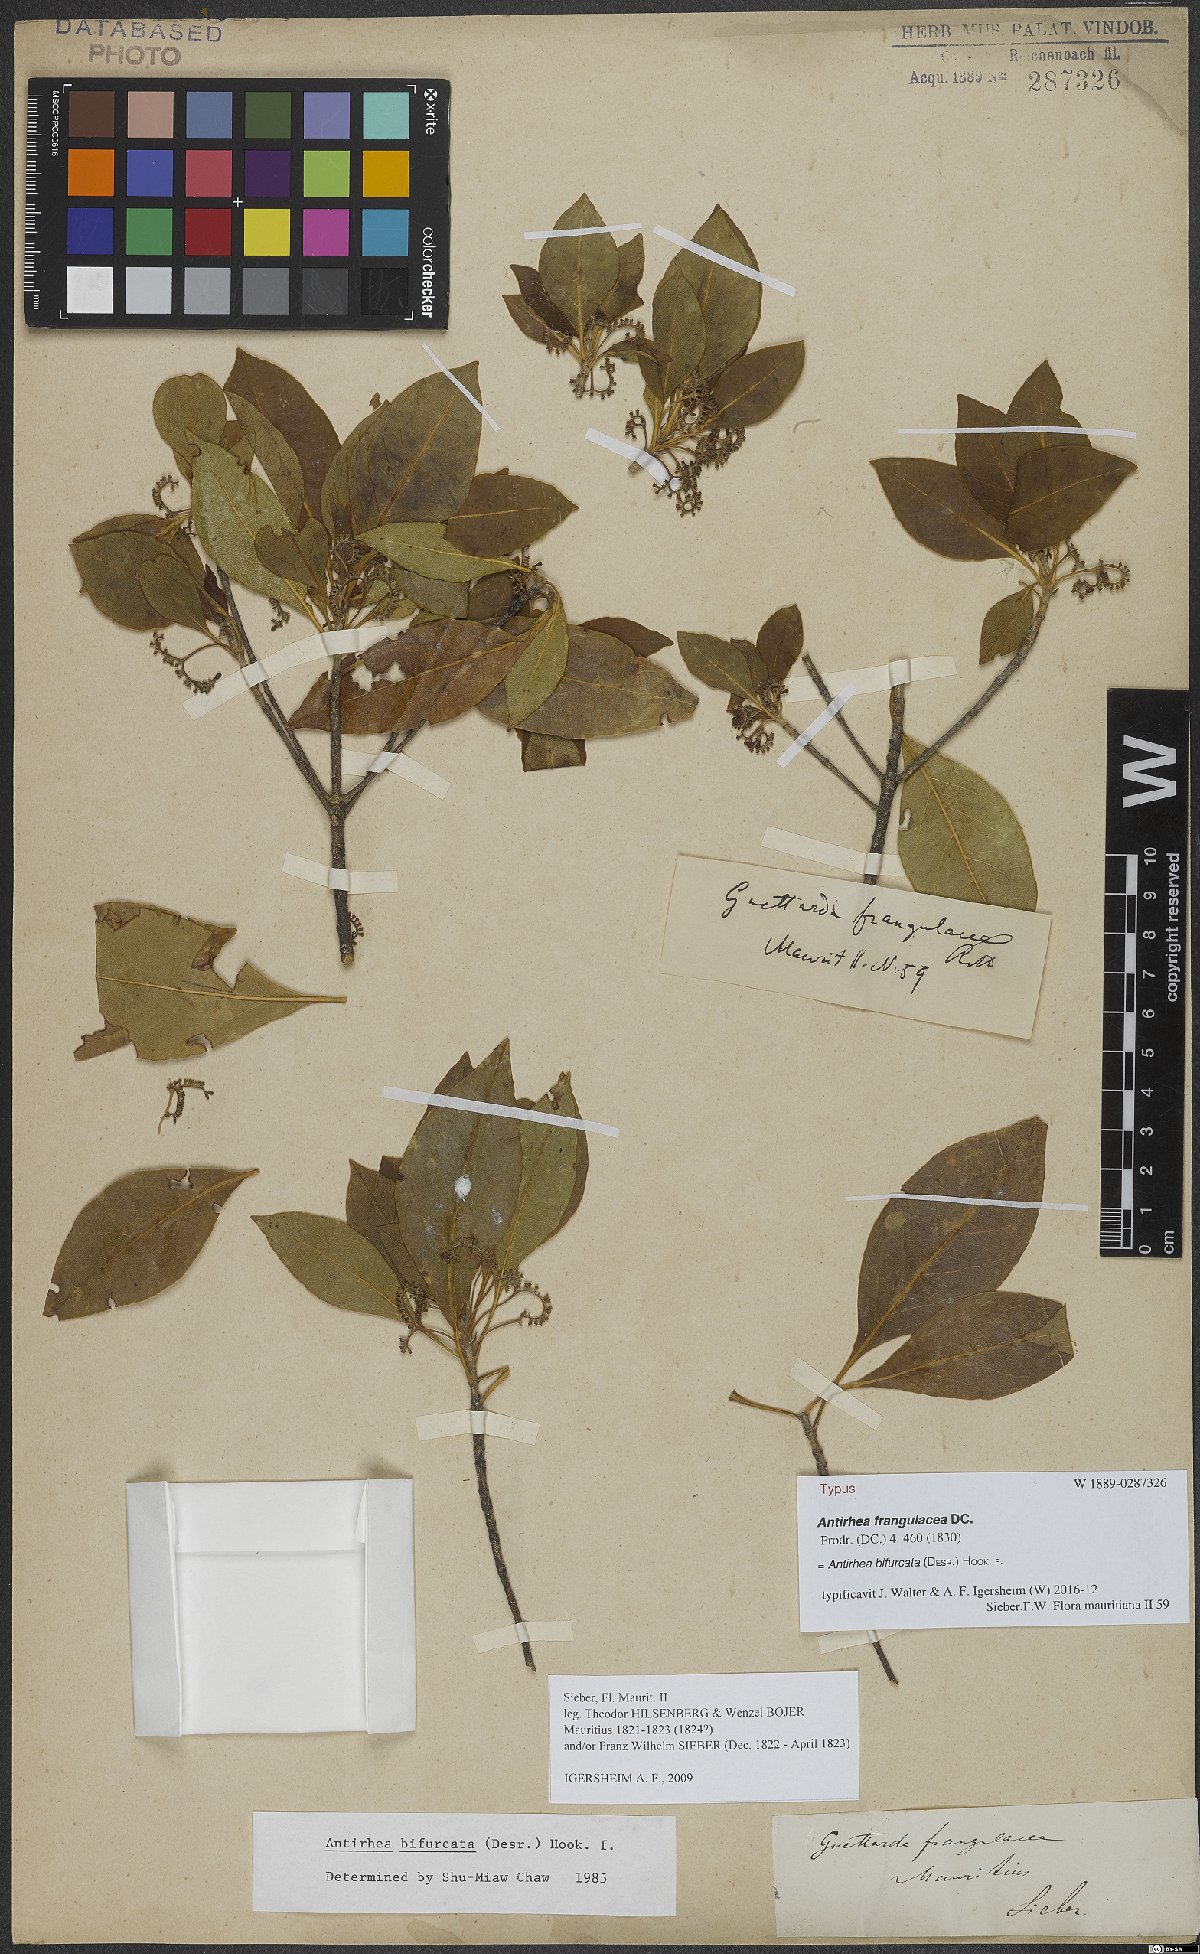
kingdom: Plantae
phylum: Tracheophyta
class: Magnoliopsida
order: Gentianales
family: Rubiaceae
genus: Antirhea
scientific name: Antirhea bifurcata
